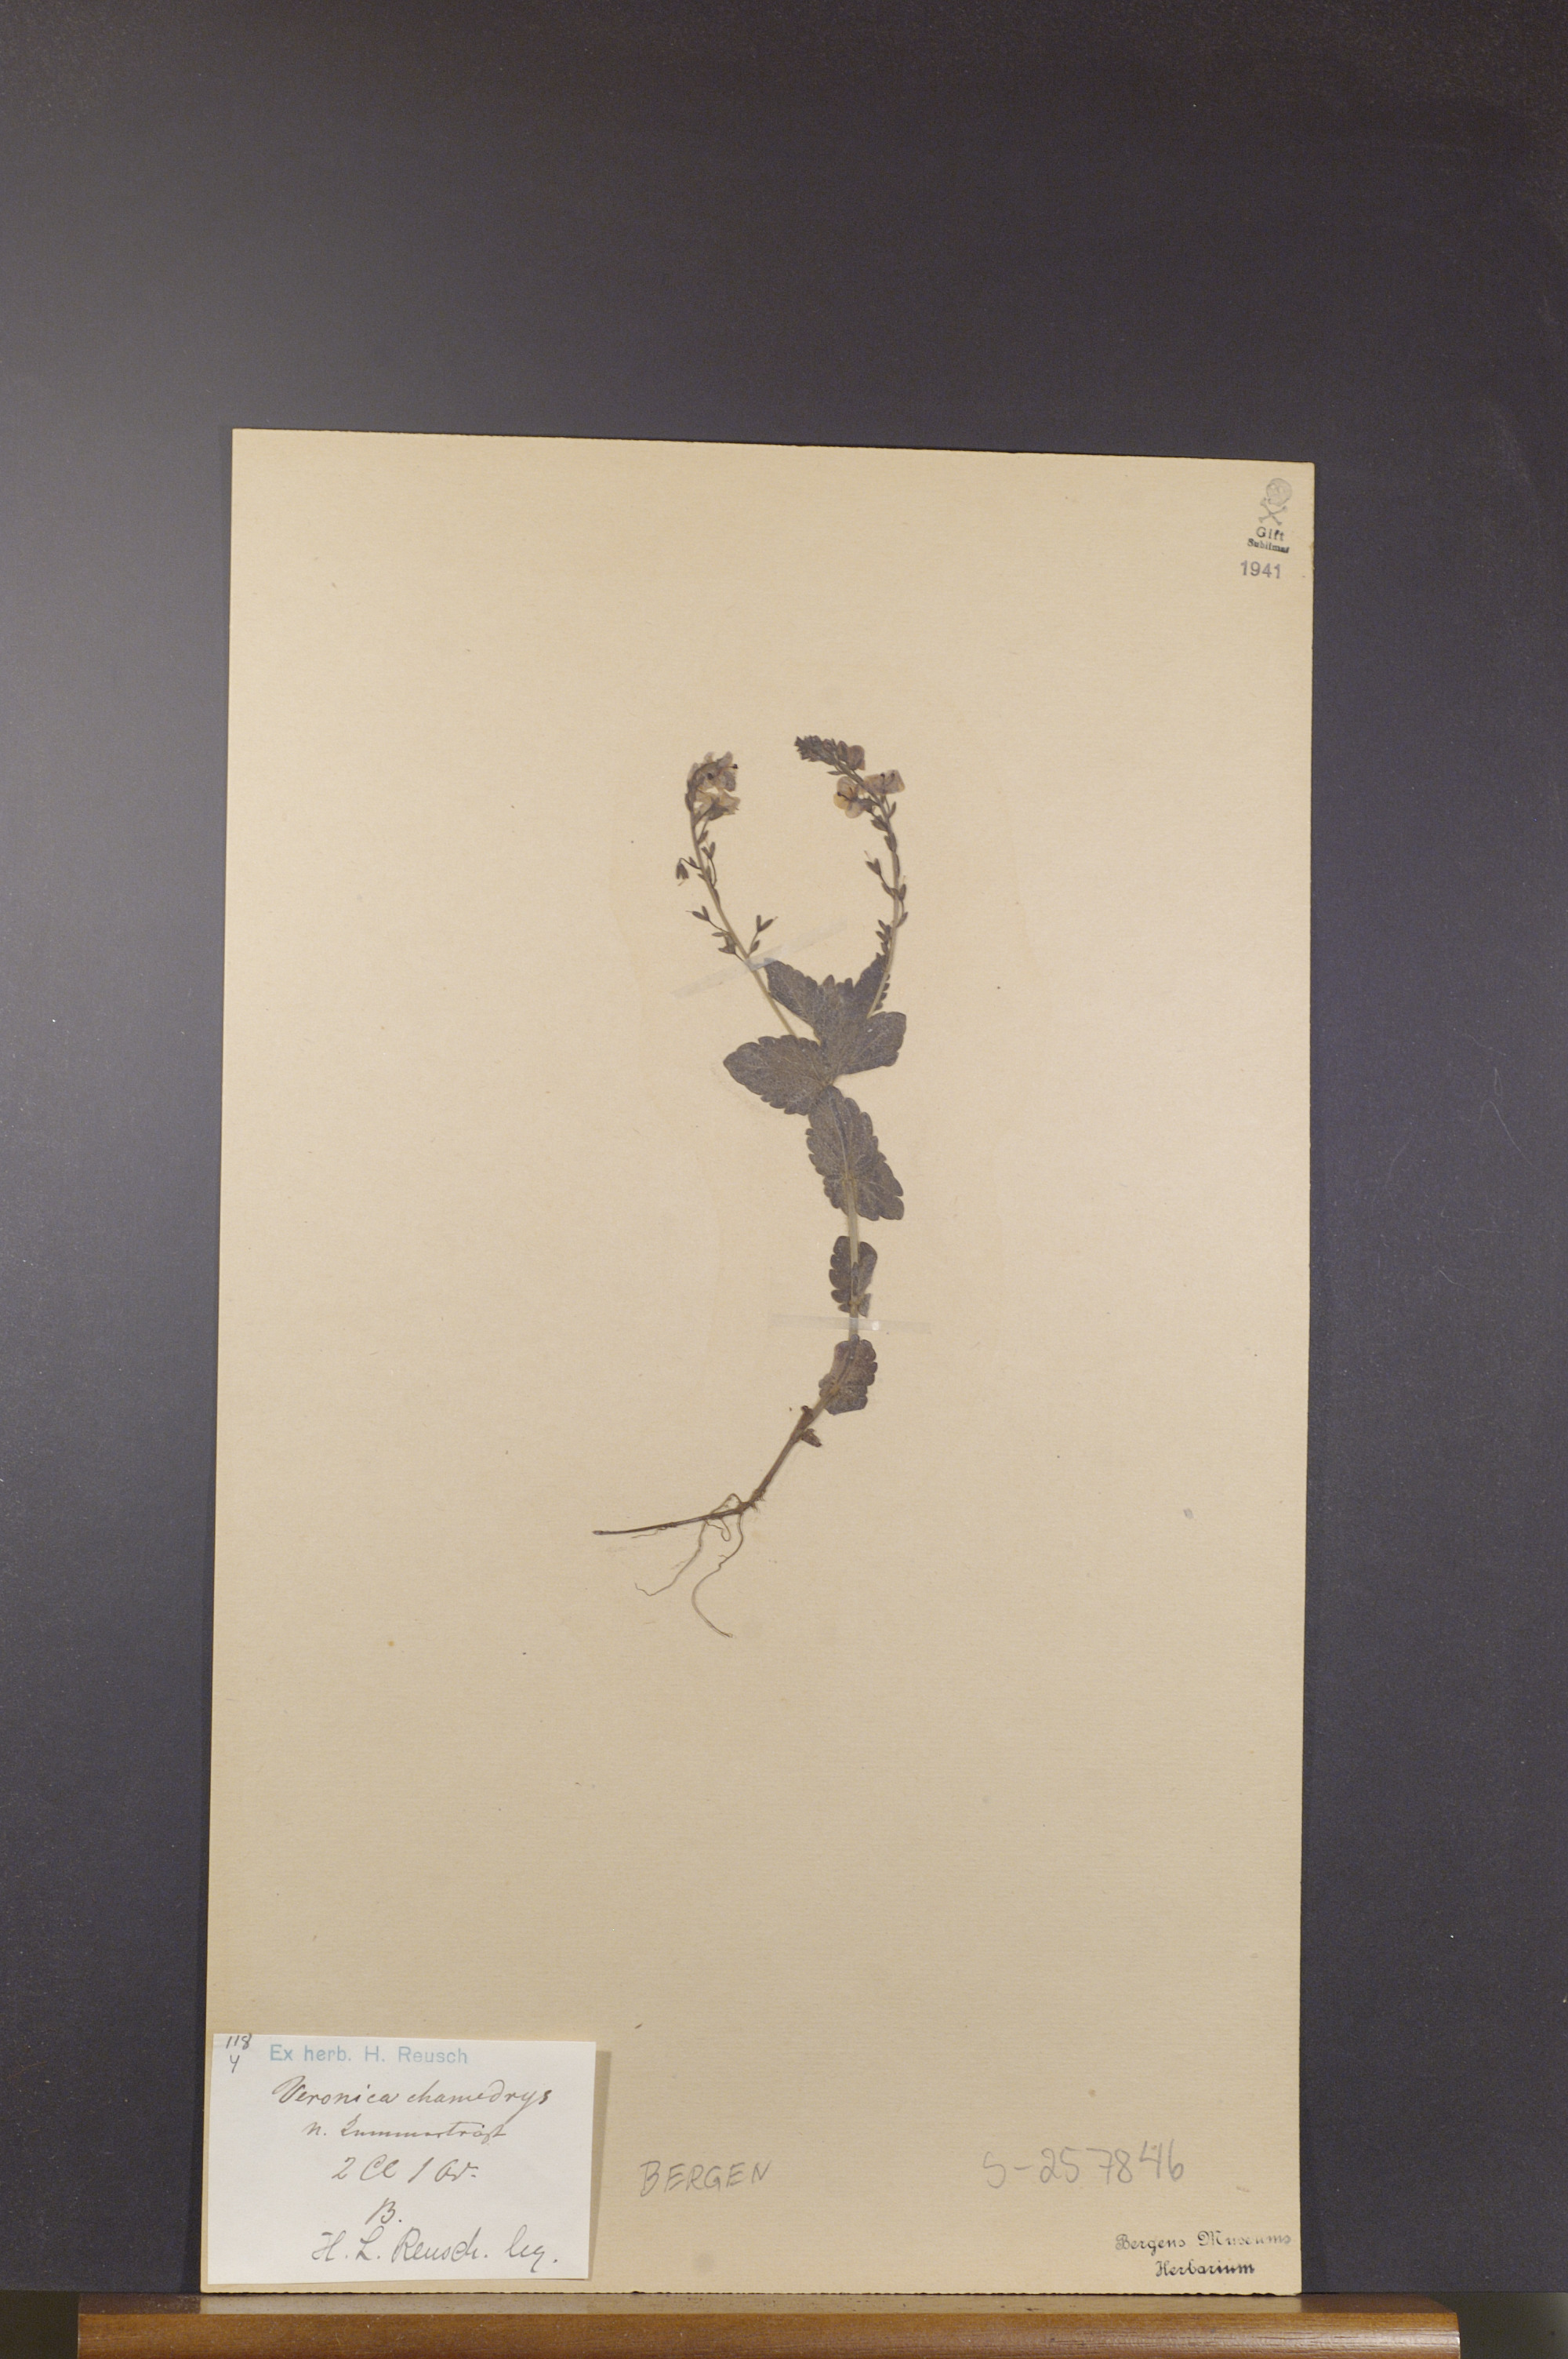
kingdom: Plantae
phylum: Tracheophyta
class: Magnoliopsida
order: Lamiales
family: Plantaginaceae
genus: Veronica
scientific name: Veronica chamaedrys
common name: Germander speedwell
